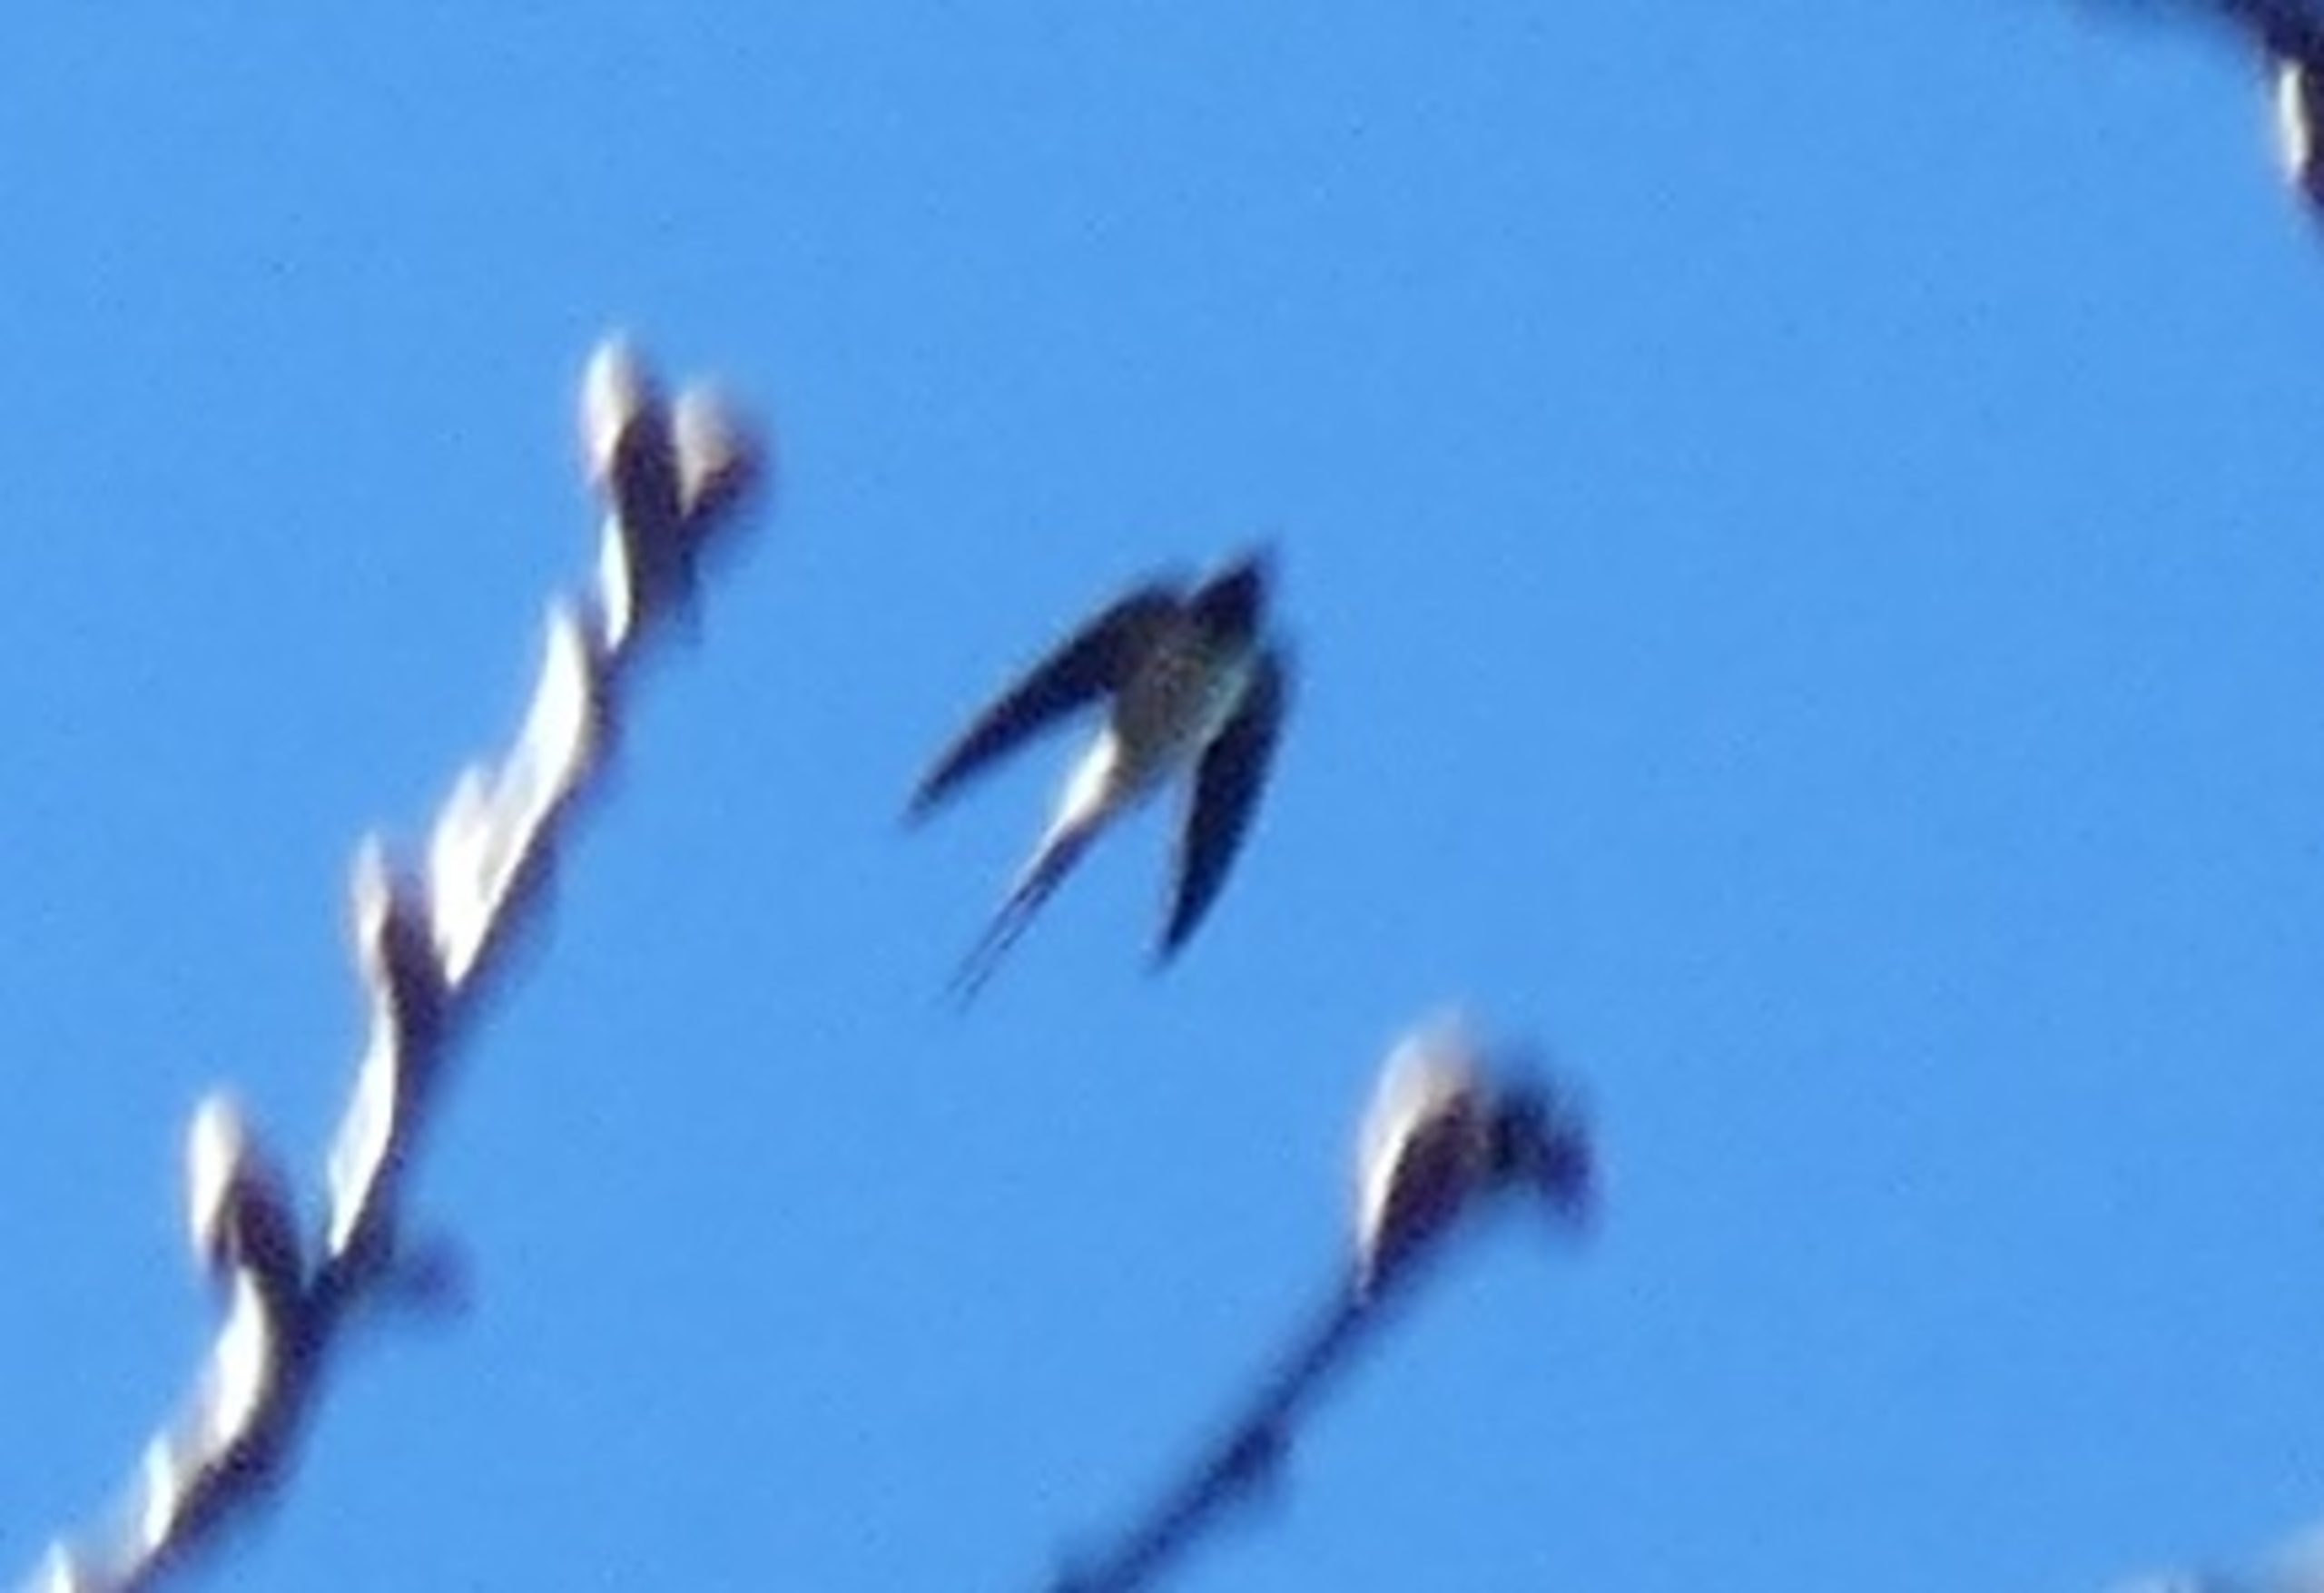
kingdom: Animalia
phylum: Chordata
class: Aves
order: Passeriformes
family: Hirundinidae
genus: Hirundo
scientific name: Hirundo rustica
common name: Landsvale
